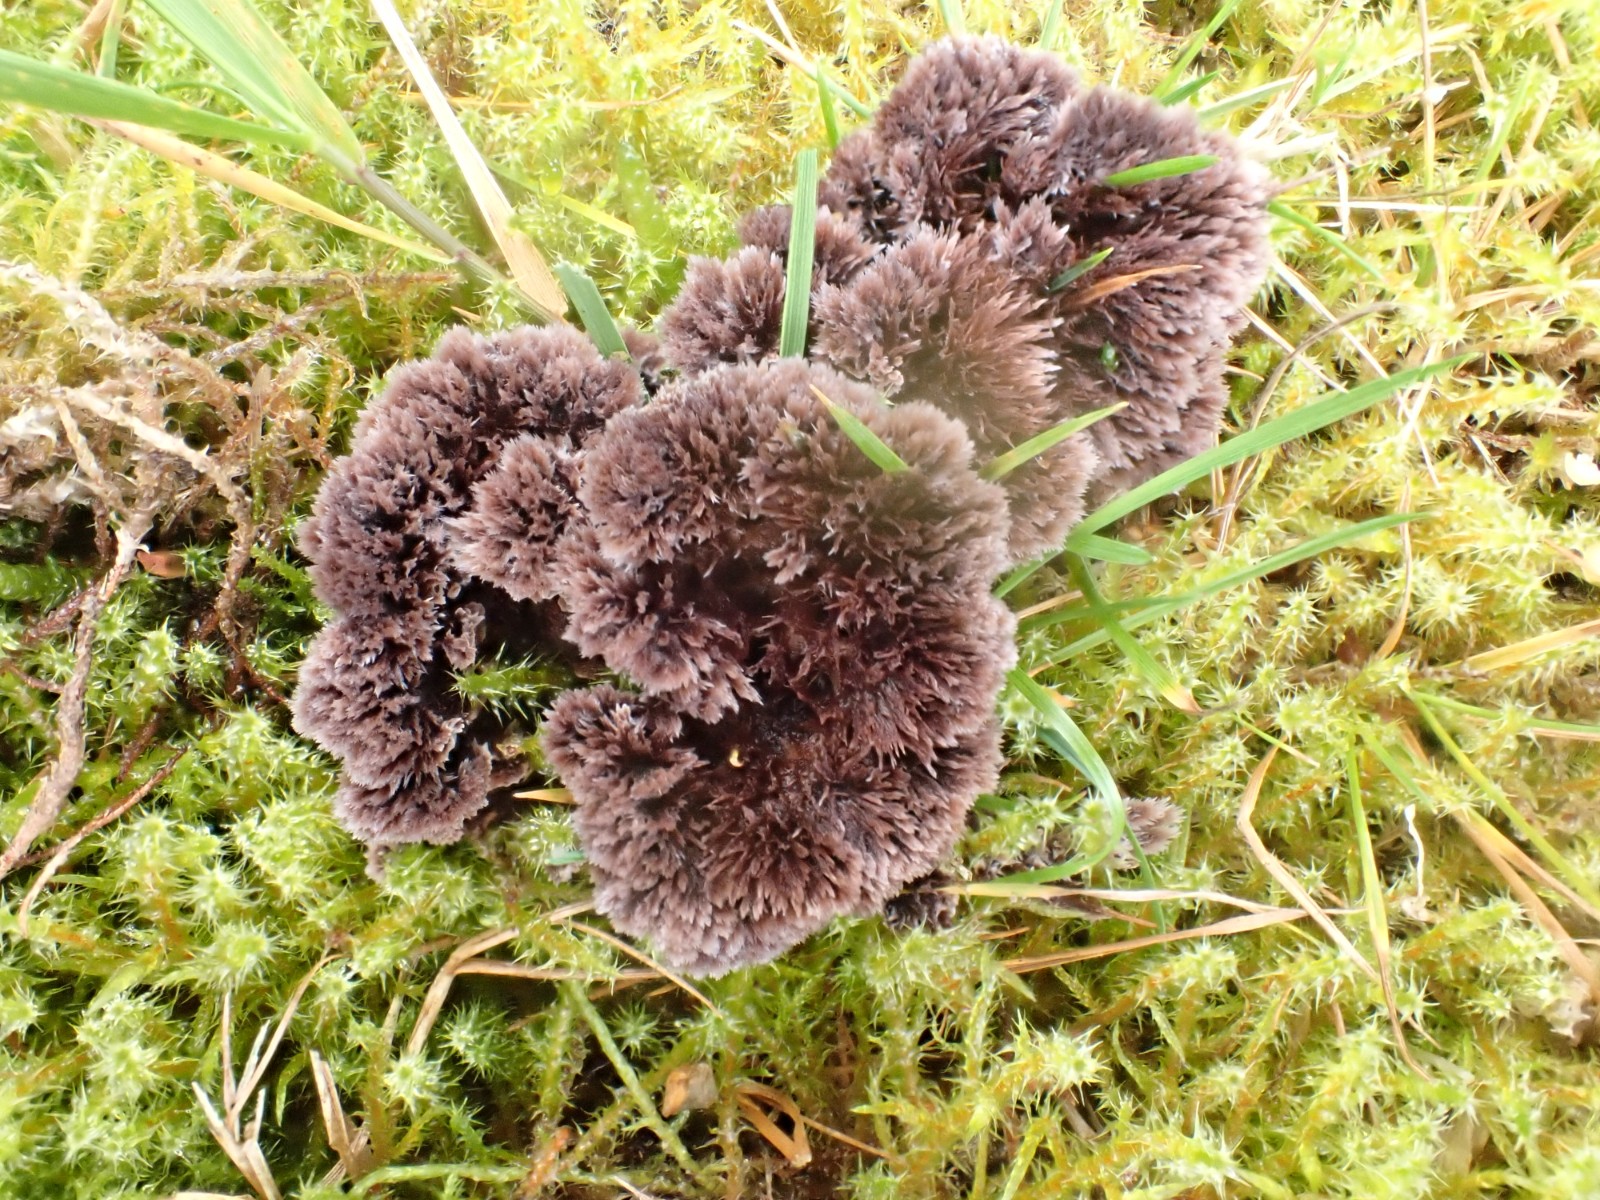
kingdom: Fungi
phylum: Basidiomycota
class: Agaricomycetes
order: Thelephorales
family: Thelephoraceae
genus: Thelephora
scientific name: Thelephora terrestris
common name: fliget frynsesvamp
